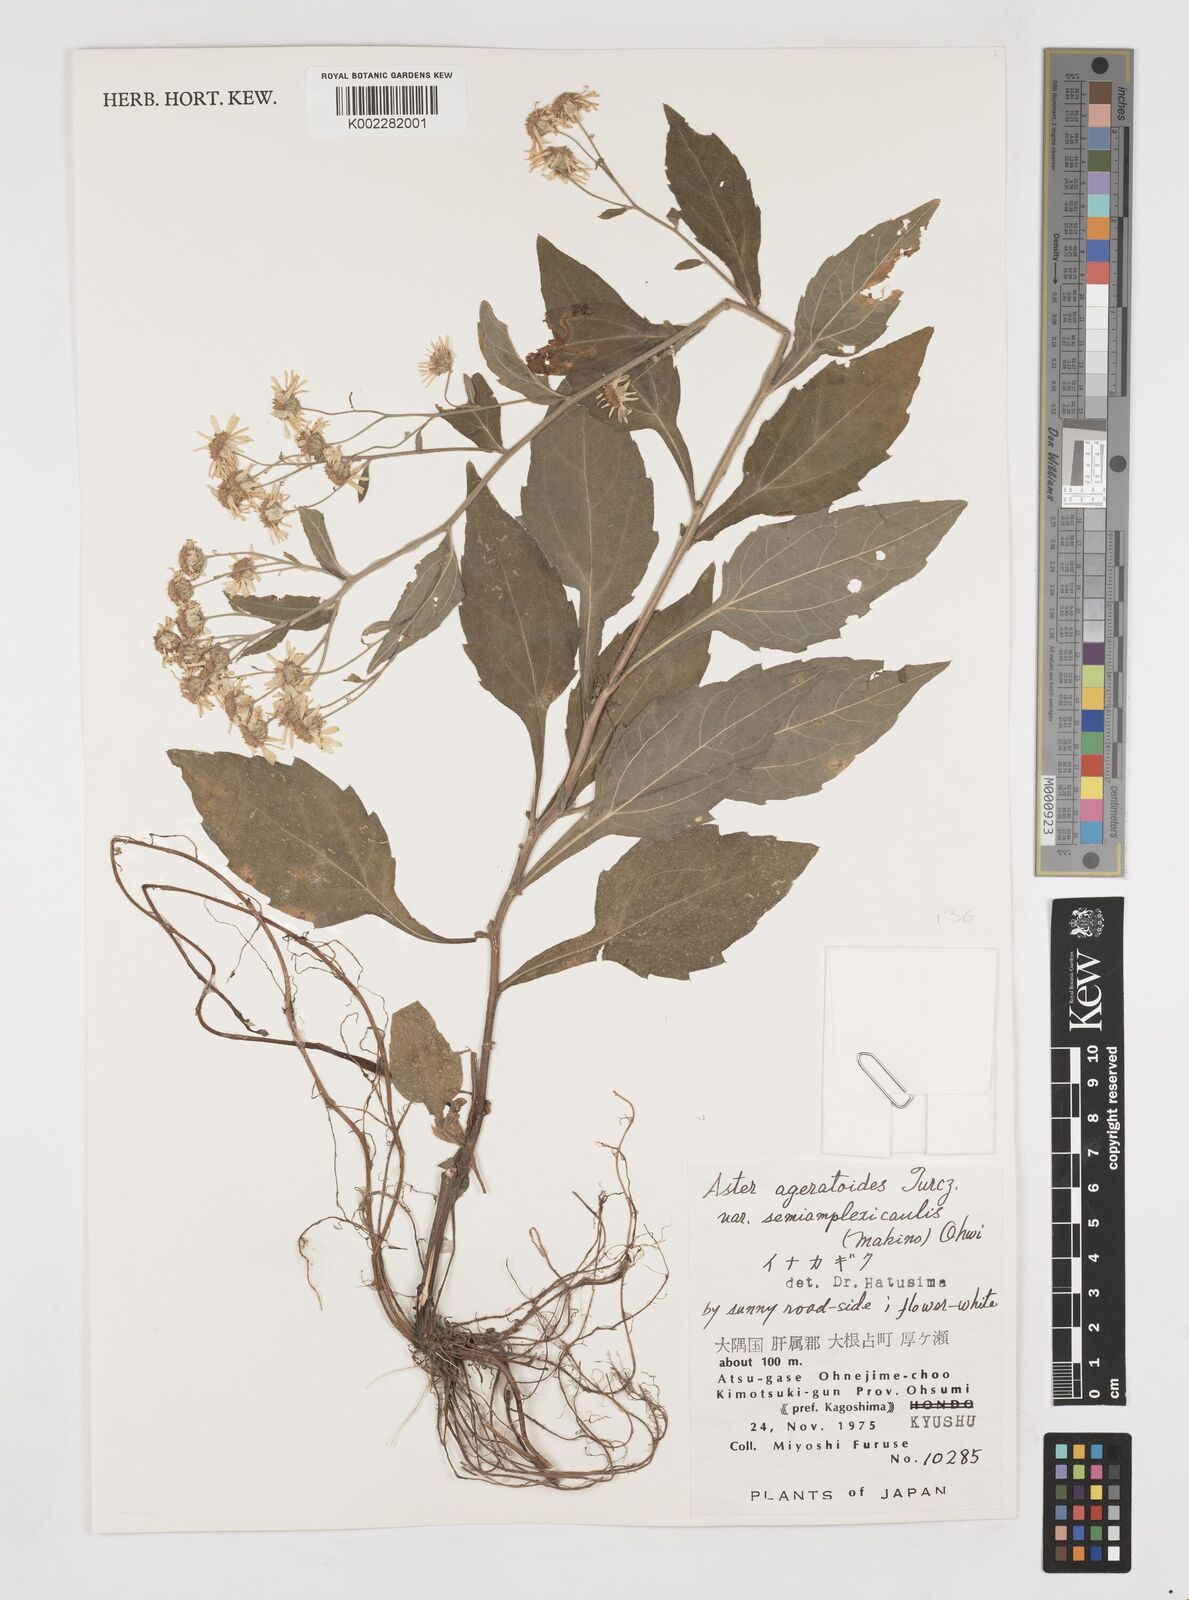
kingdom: Plantae
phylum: Tracheophyta
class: Magnoliopsida
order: Asterales
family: Asteraceae
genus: Aster
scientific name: Aster trinervius
